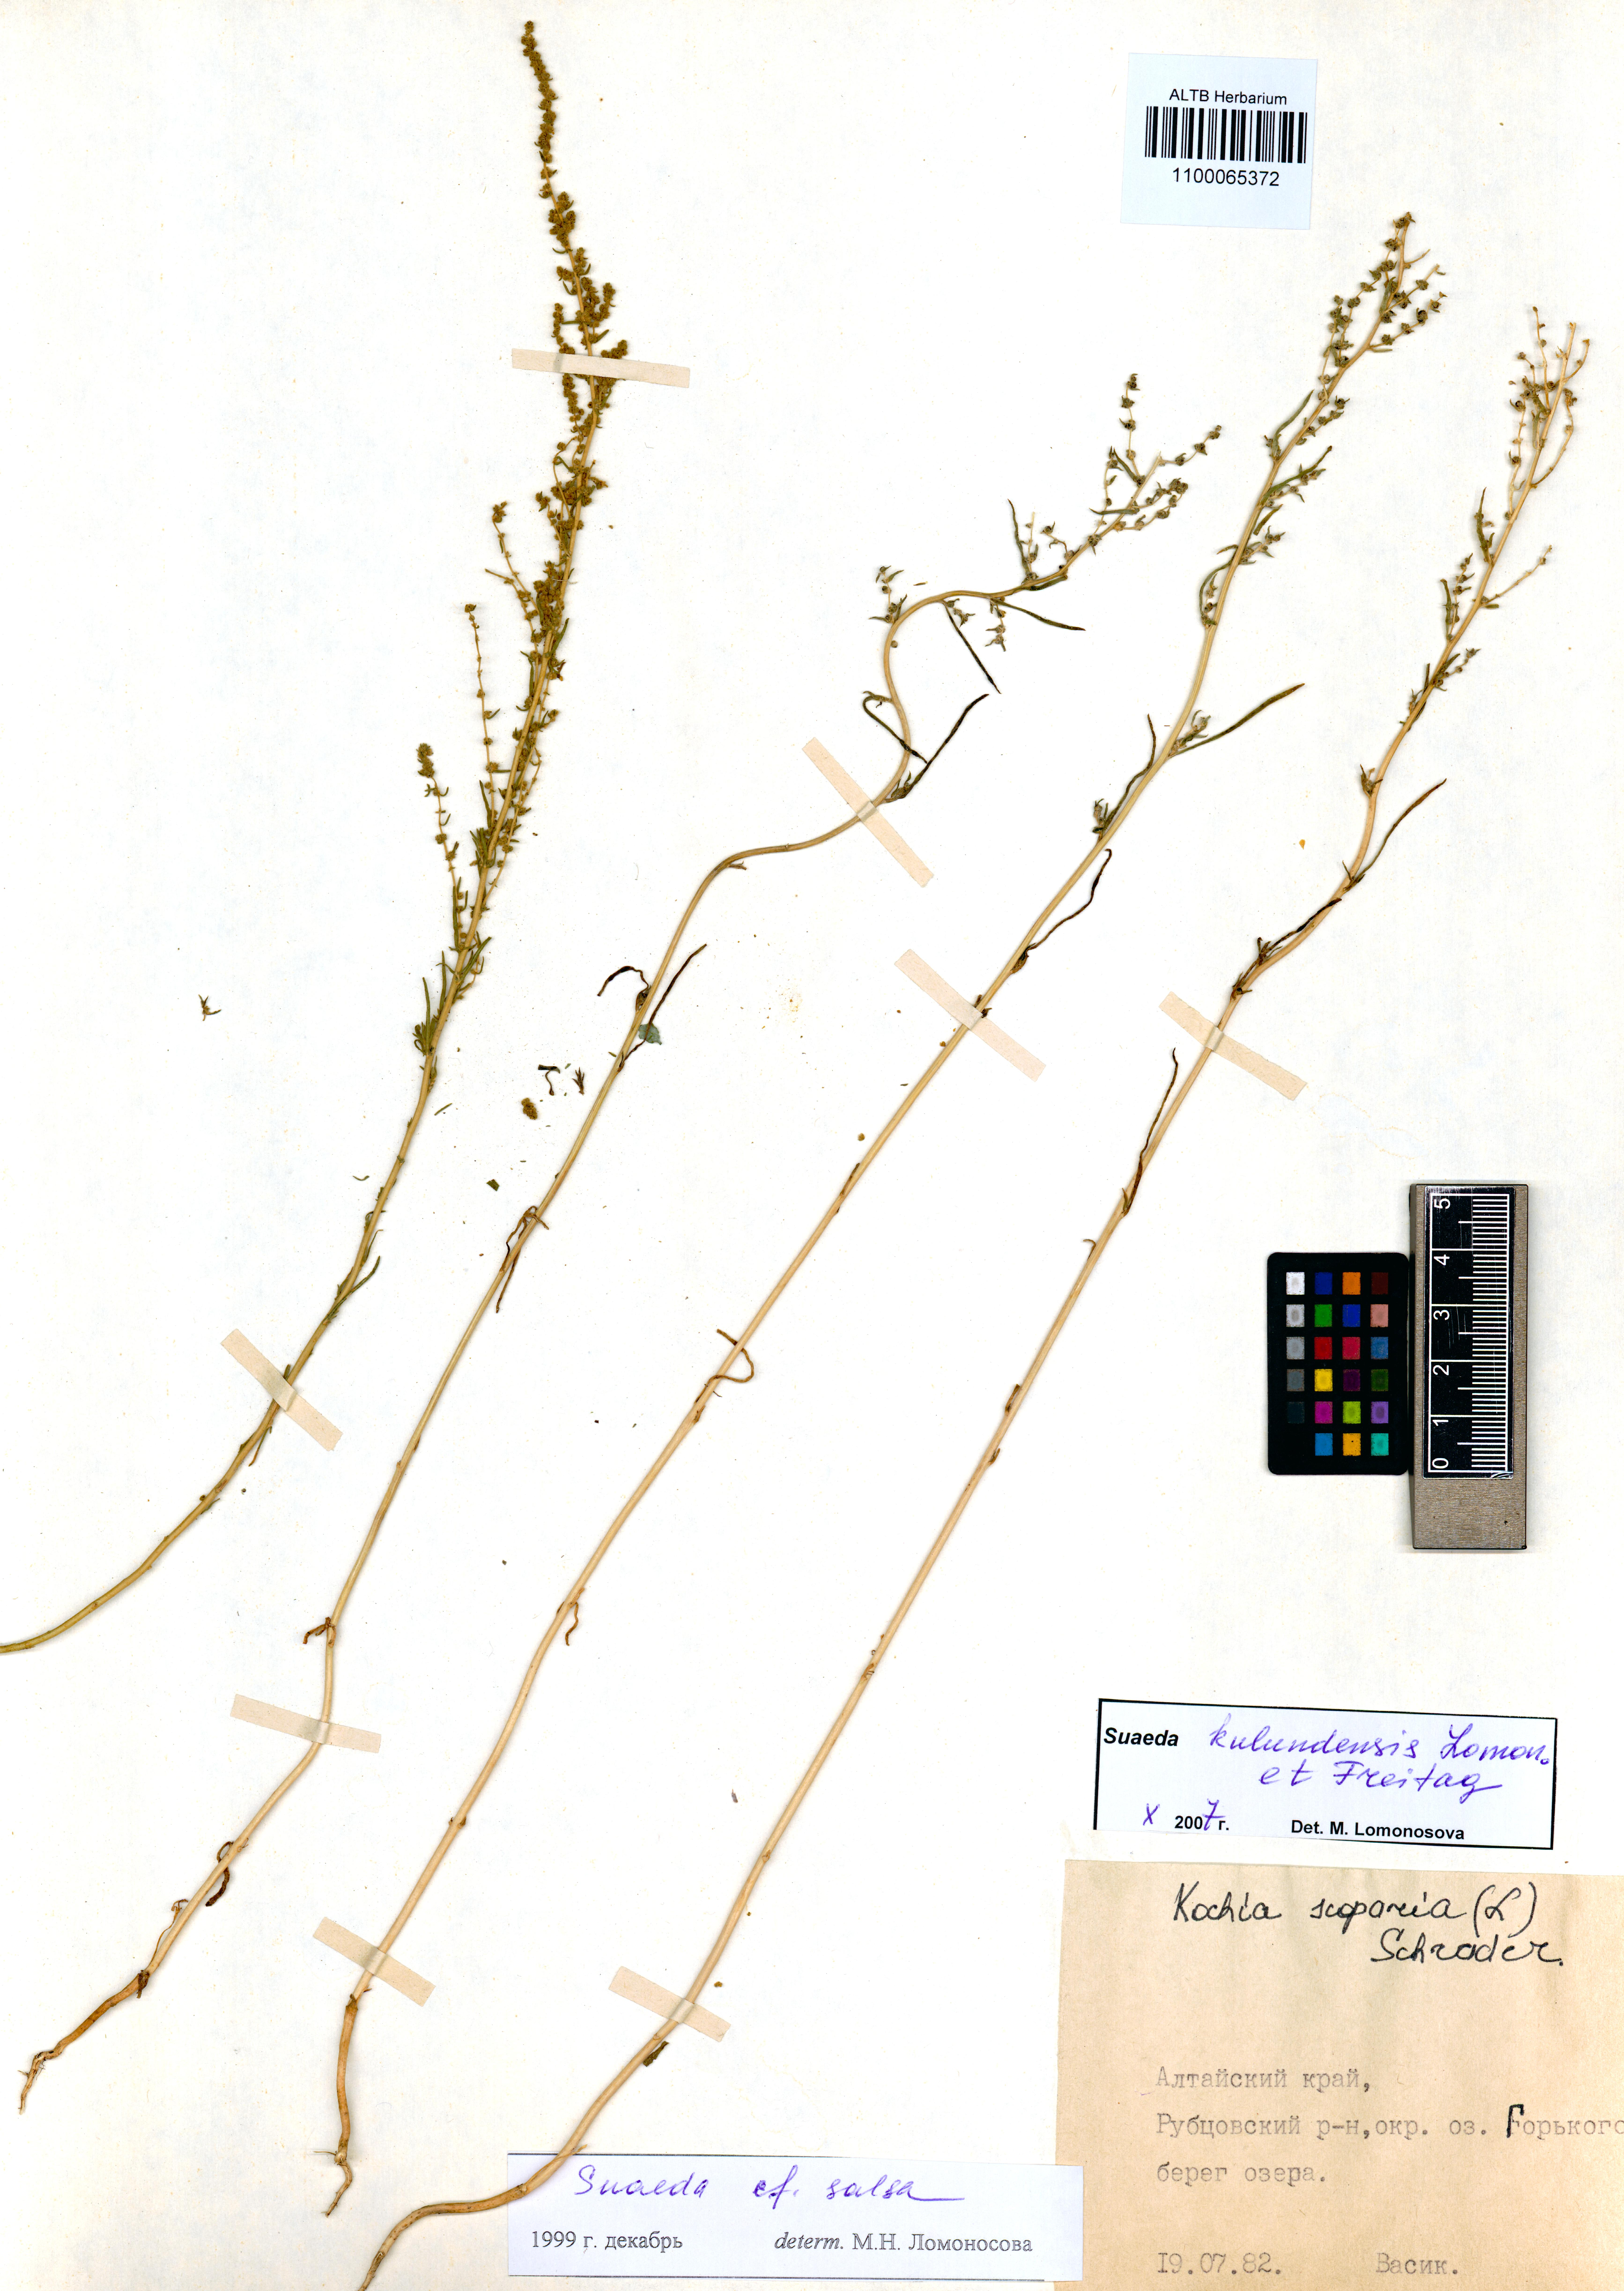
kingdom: Plantae
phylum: Tracheophyta
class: Magnoliopsida
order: Caryophyllales
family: Amaranthaceae
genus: Suaeda
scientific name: Suaeda kulundensis
